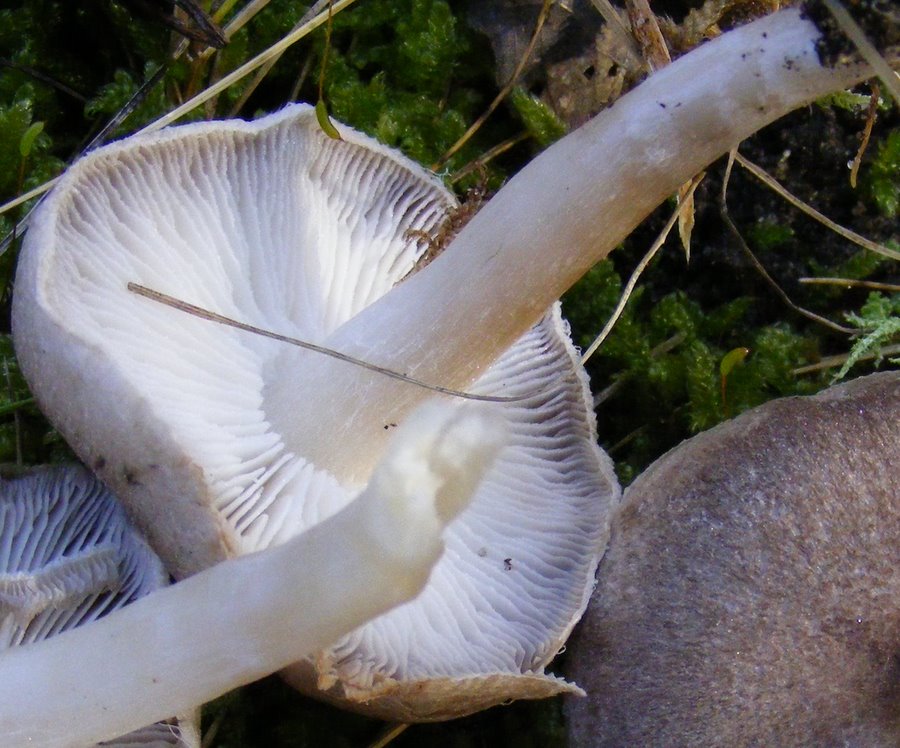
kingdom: Fungi
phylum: Basidiomycota
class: Agaricomycetes
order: Agaricales
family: Tricholomataceae
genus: Tricholoma
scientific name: Tricholoma scalpturatum
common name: gulplettet ridderhat
